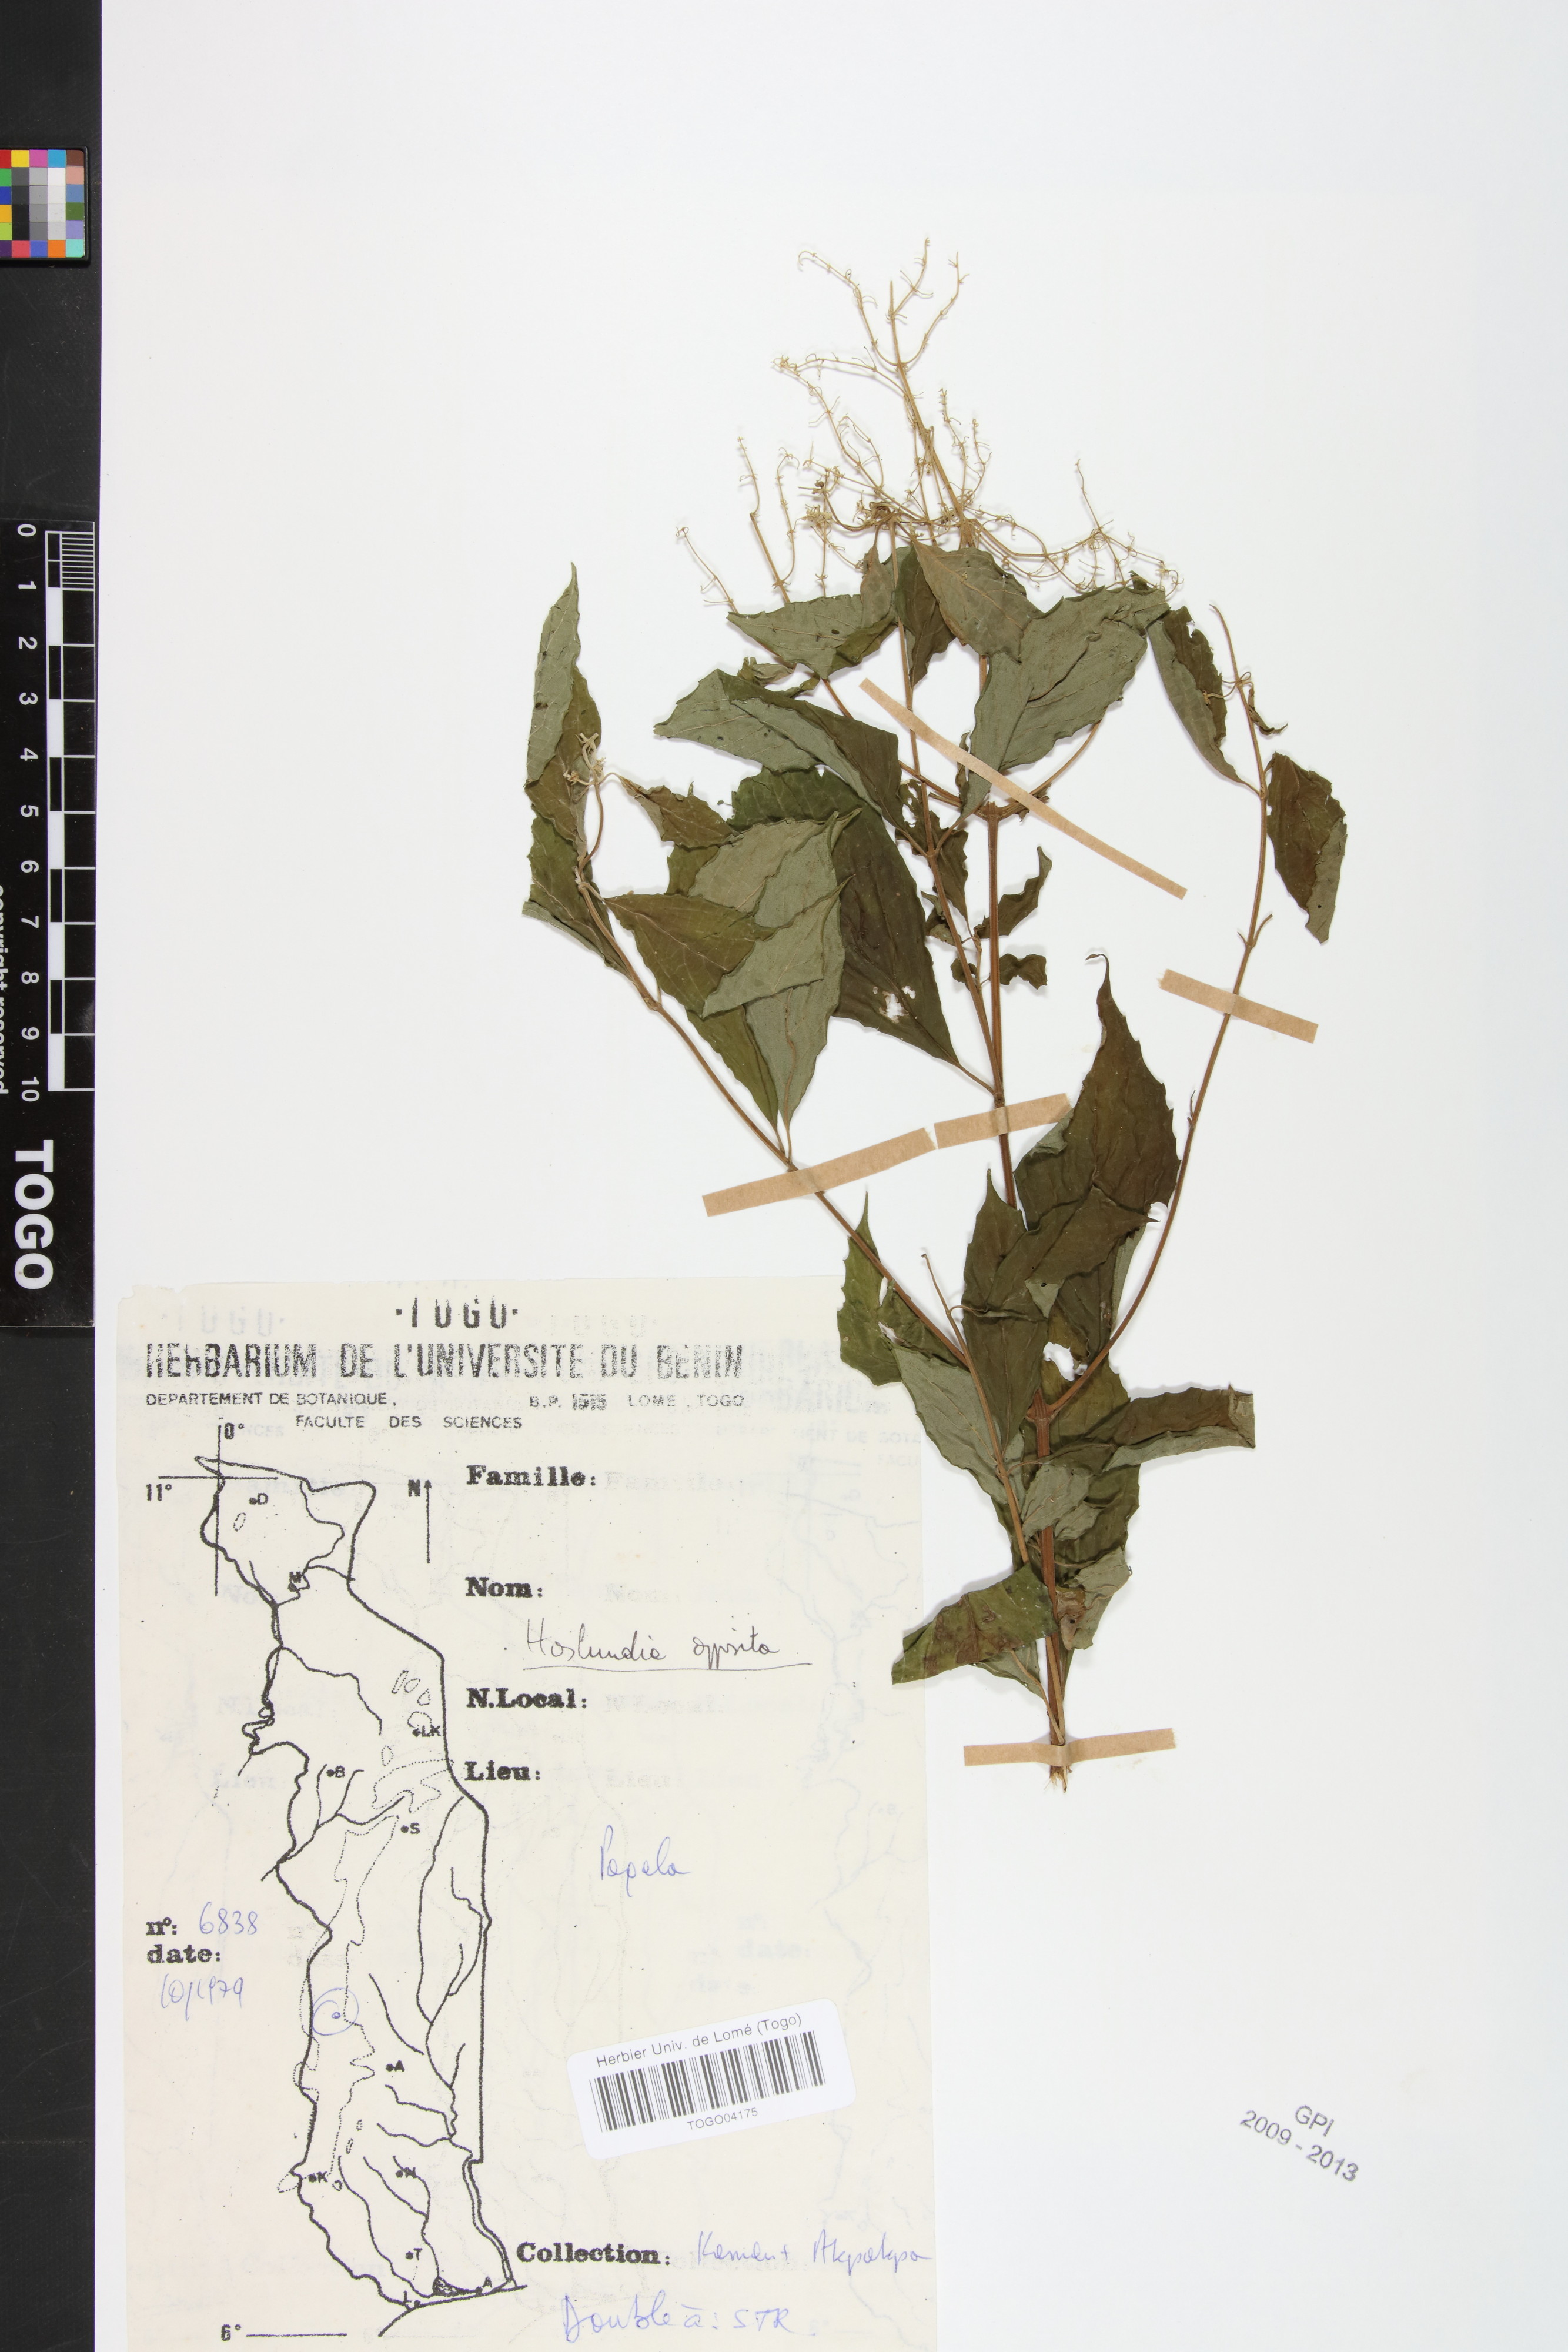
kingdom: Plantae
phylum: Tracheophyta
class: Magnoliopsida
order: Lamiales
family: Lamiaceae
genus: Hoslundia
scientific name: Hoslundia opposita
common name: Kamyuye
